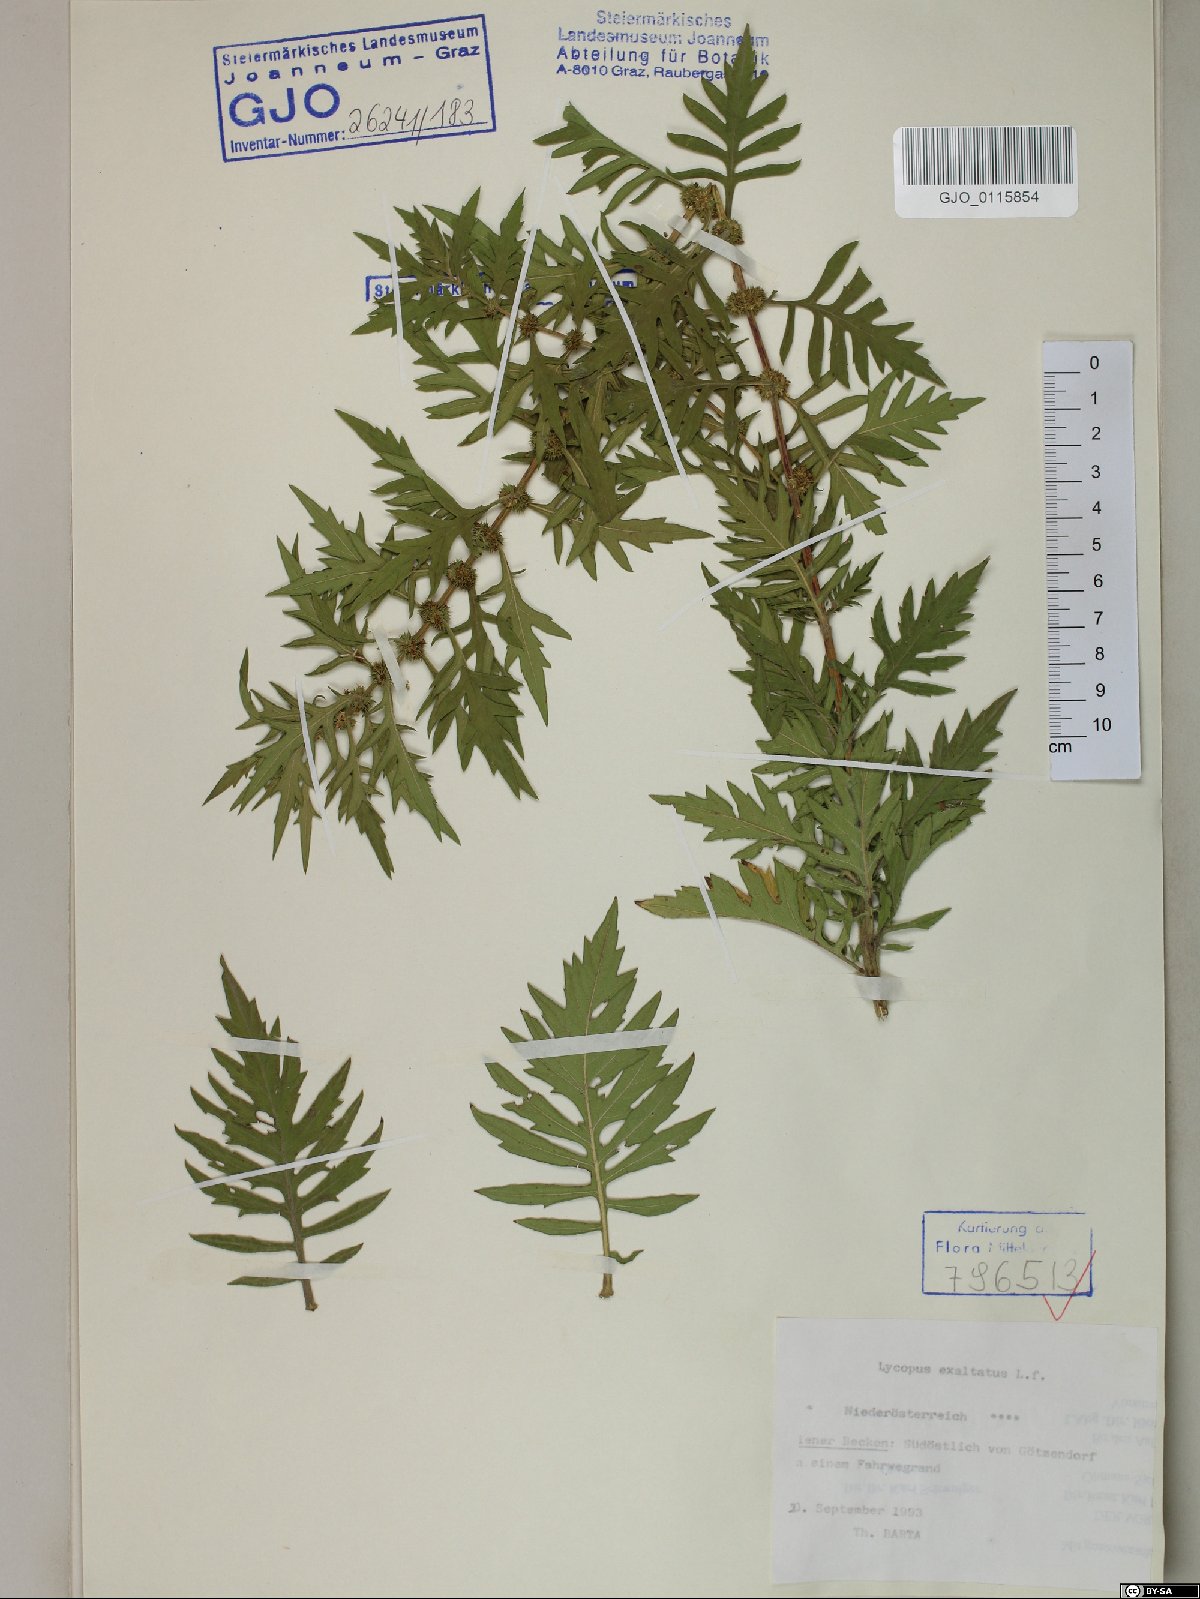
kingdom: Plantae
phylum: Tracheophyta
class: Magnoliopsida
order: Lamiales
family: Lamiaceae
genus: Lycopus
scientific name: Lycopus exaltatus
